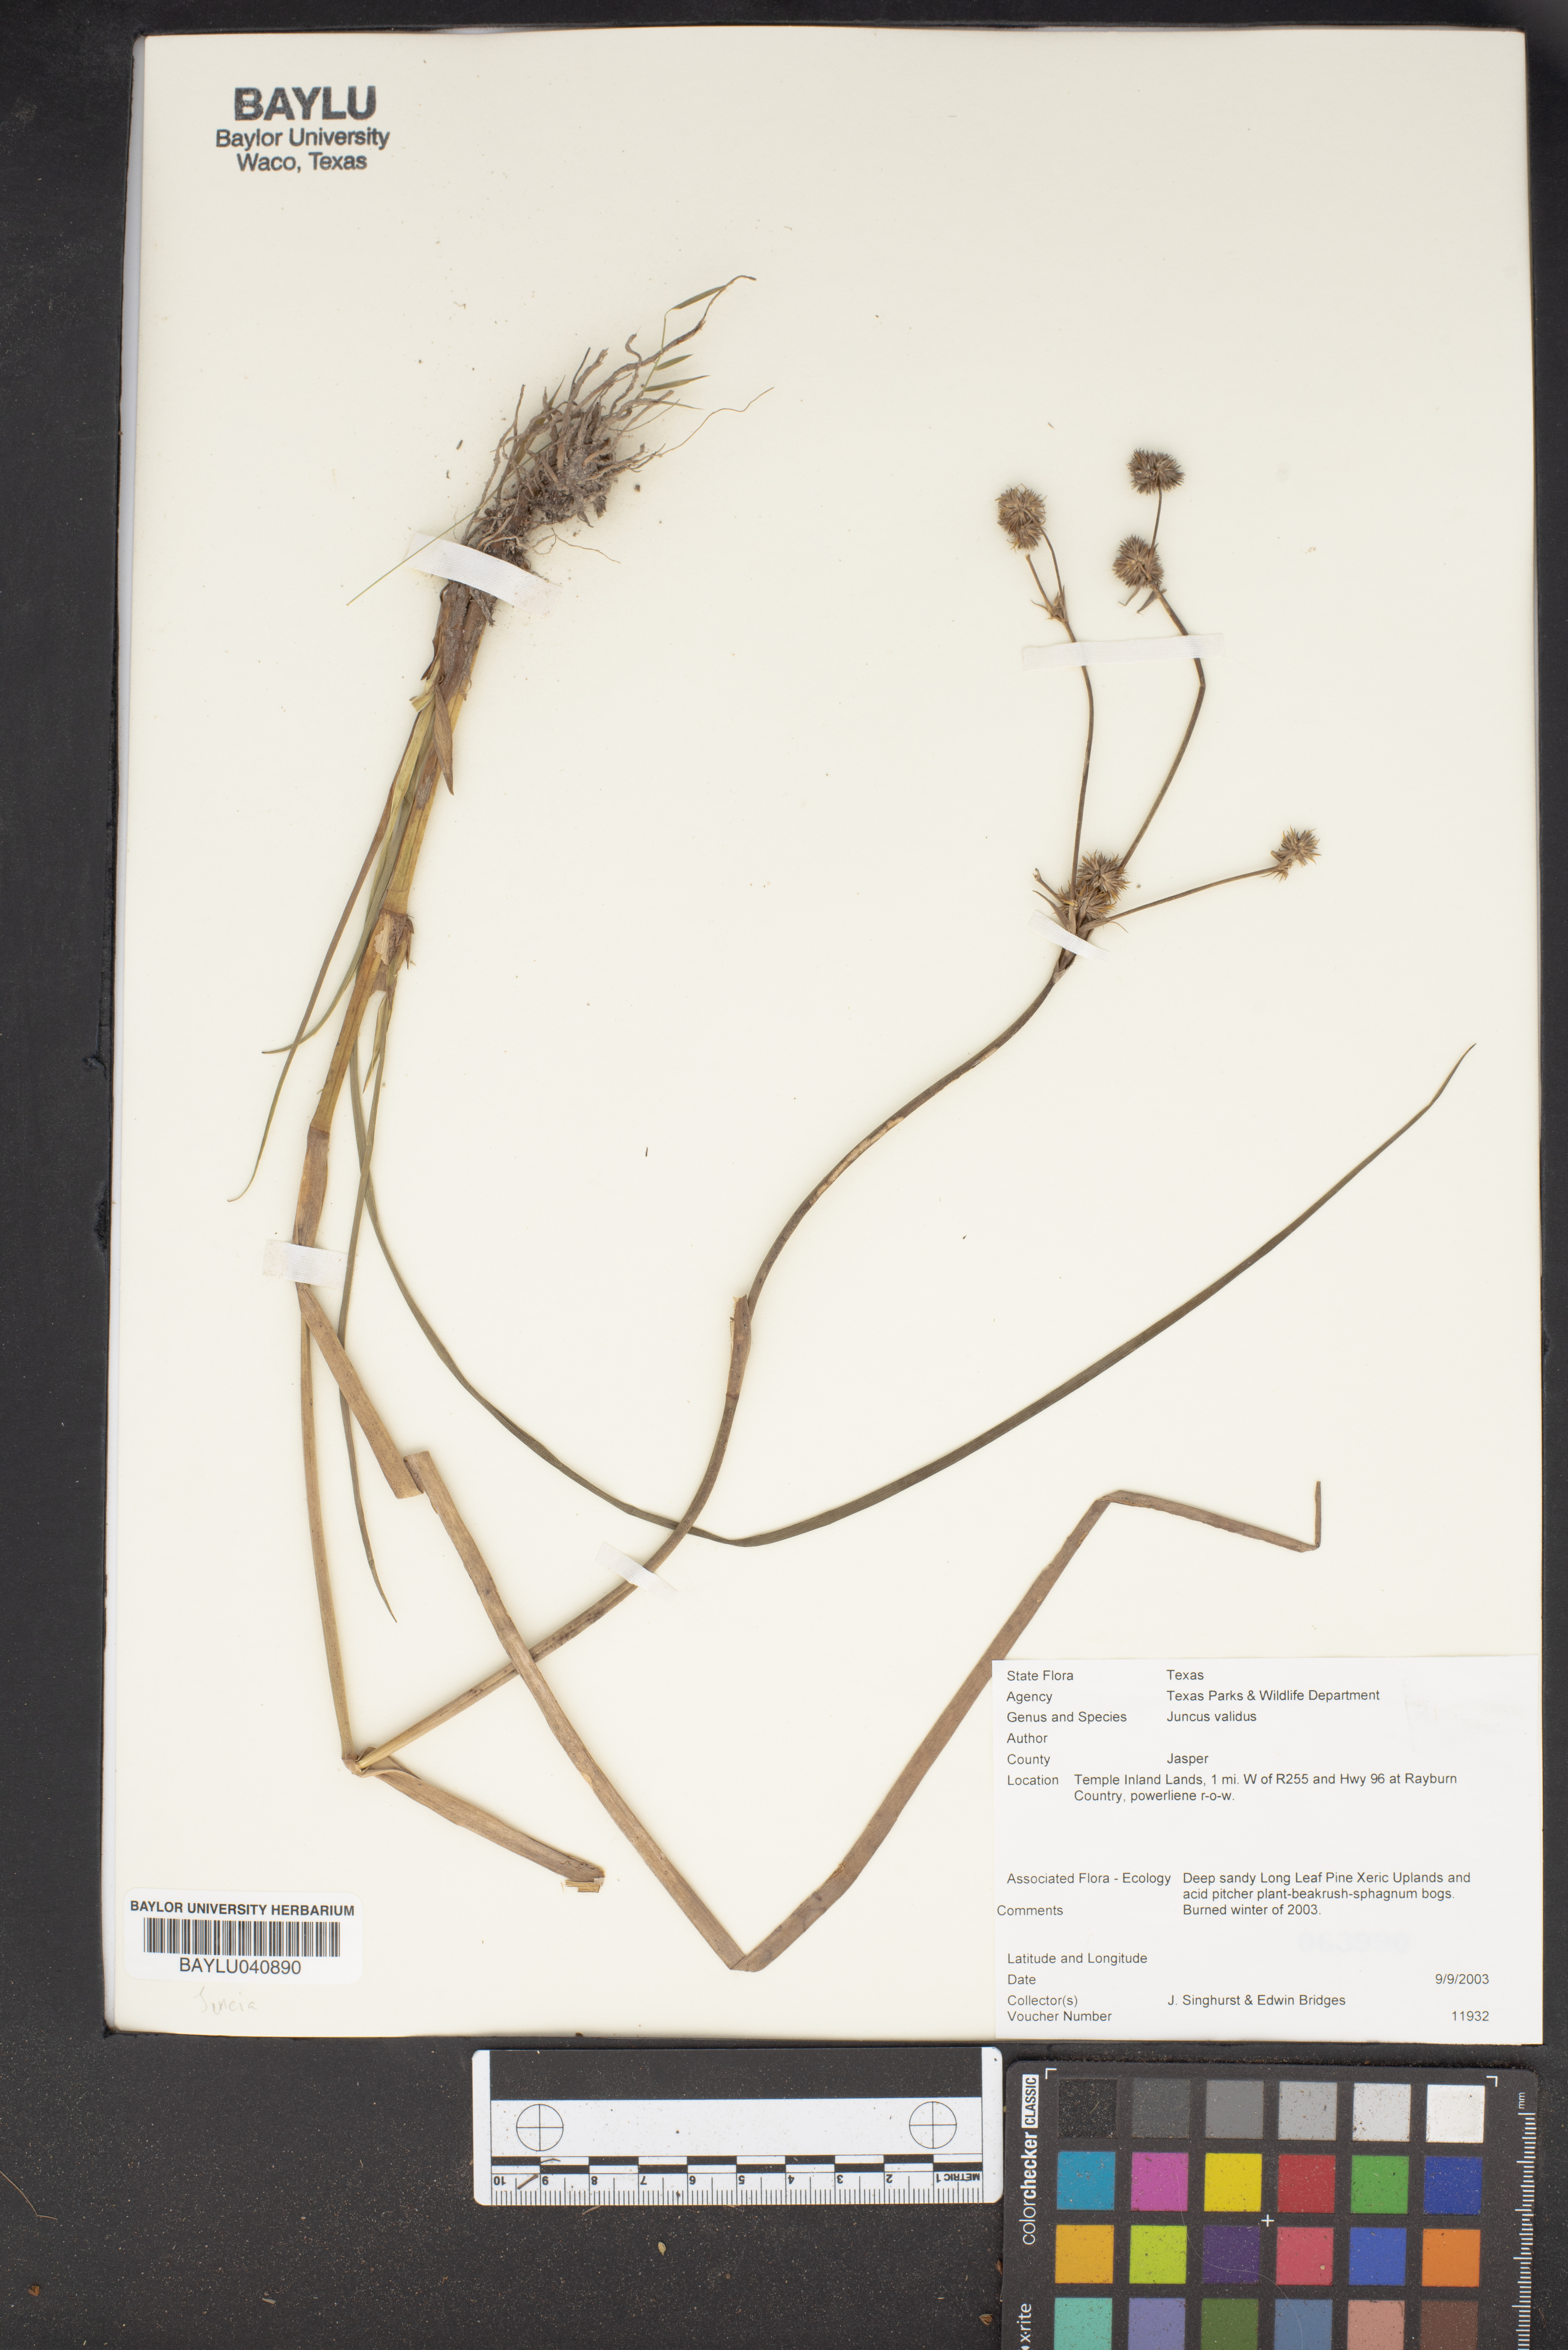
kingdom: Plantae
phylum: Tracheophyta
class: Liliopsida
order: Poales
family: Juncaceae
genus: Juncus
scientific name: Juncus validus
